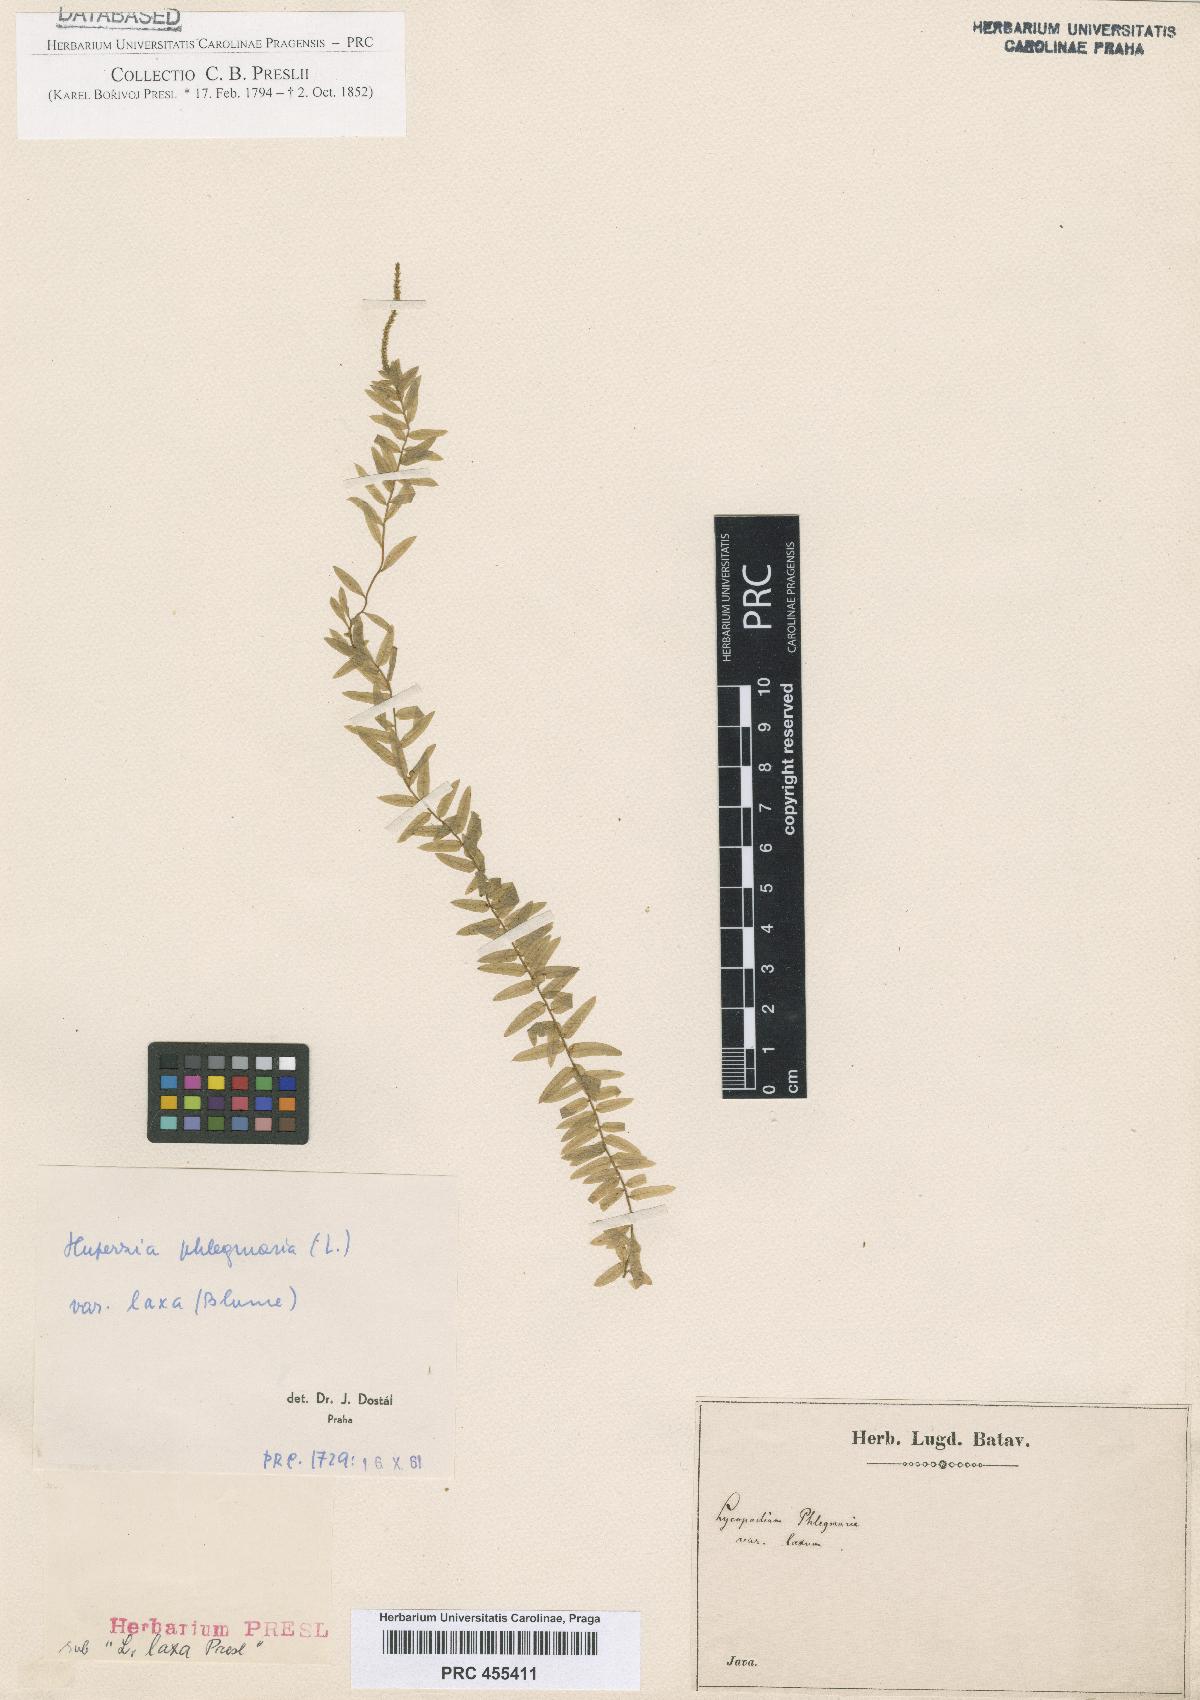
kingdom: Plantae
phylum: Tracheophyta
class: Lycopodiopsida
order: Lycopodiales
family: Lycopodiaceae
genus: Phlegmariurus
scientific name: Phlegmariurus phlegmaria
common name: Coarse tassel-fern
